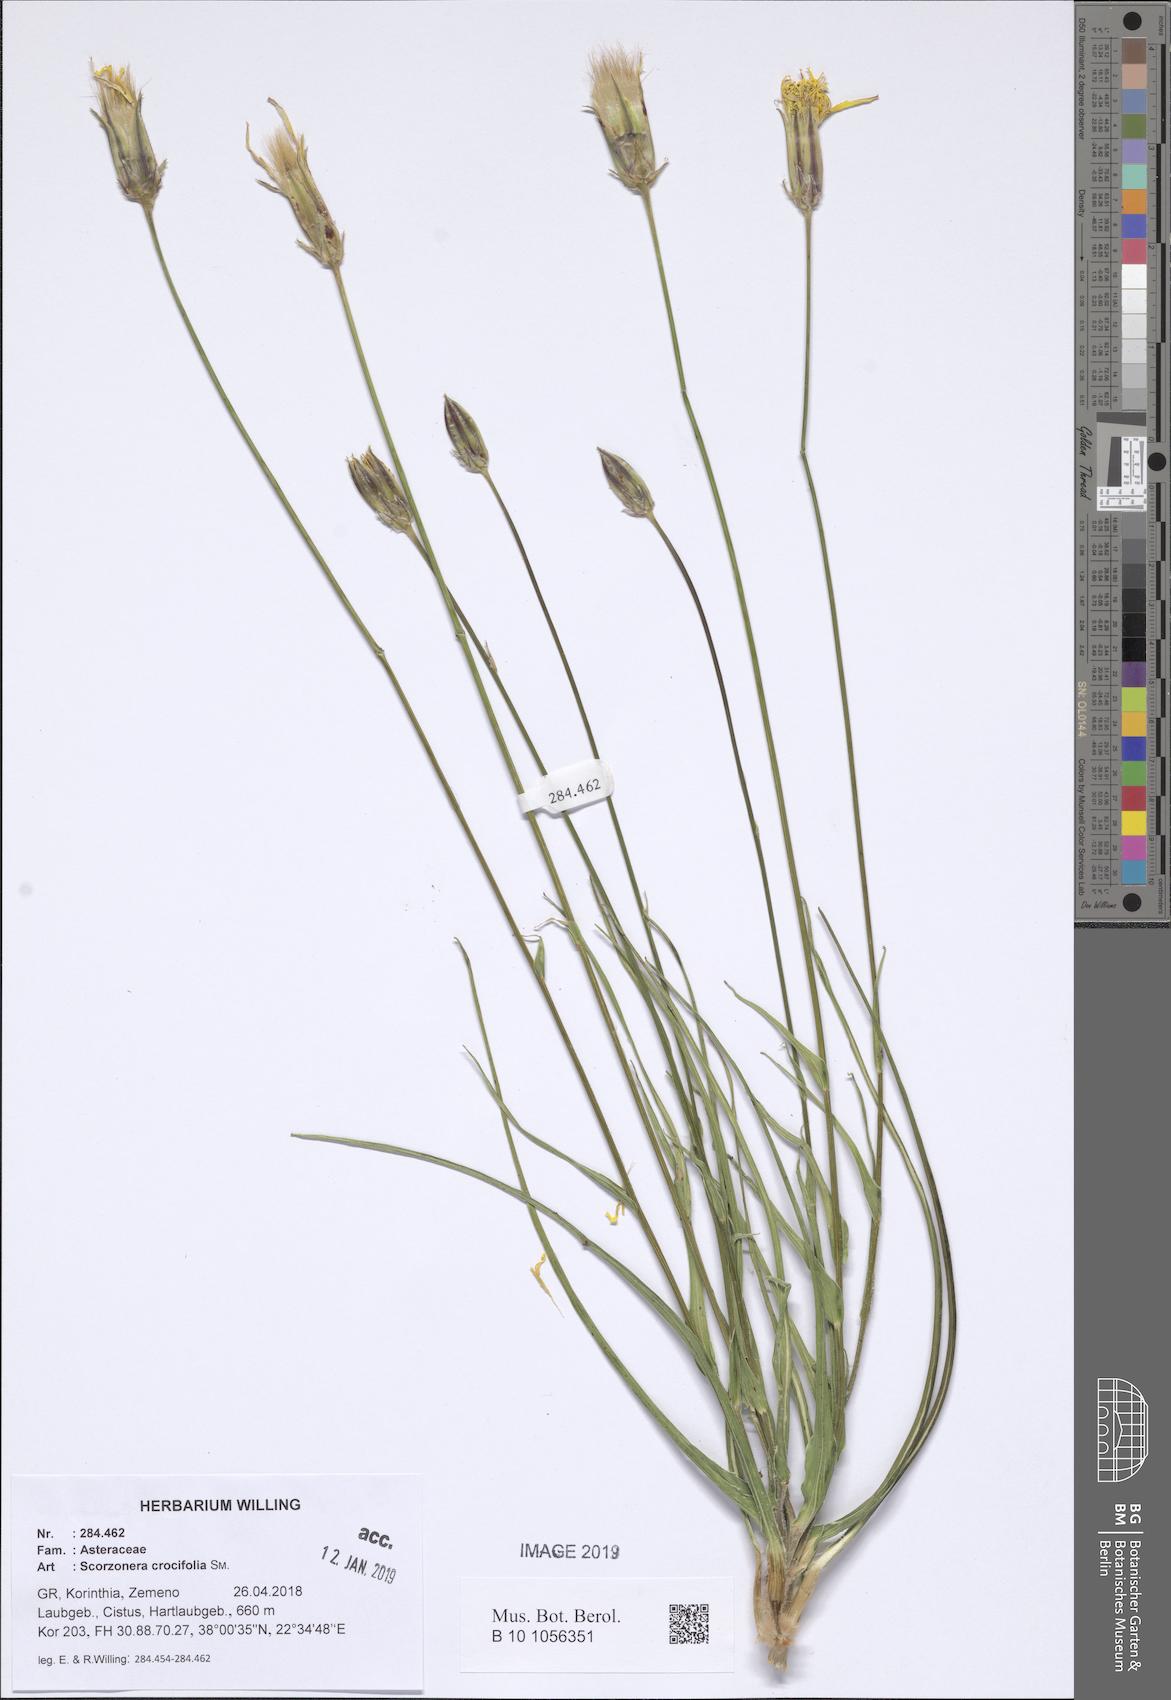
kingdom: Plantae
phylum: Tracheophyta
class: Magnoliopsida
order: Asterales
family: Asteraceae
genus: Pseudopodospermum
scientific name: Pseudopodospermum crocifolium
